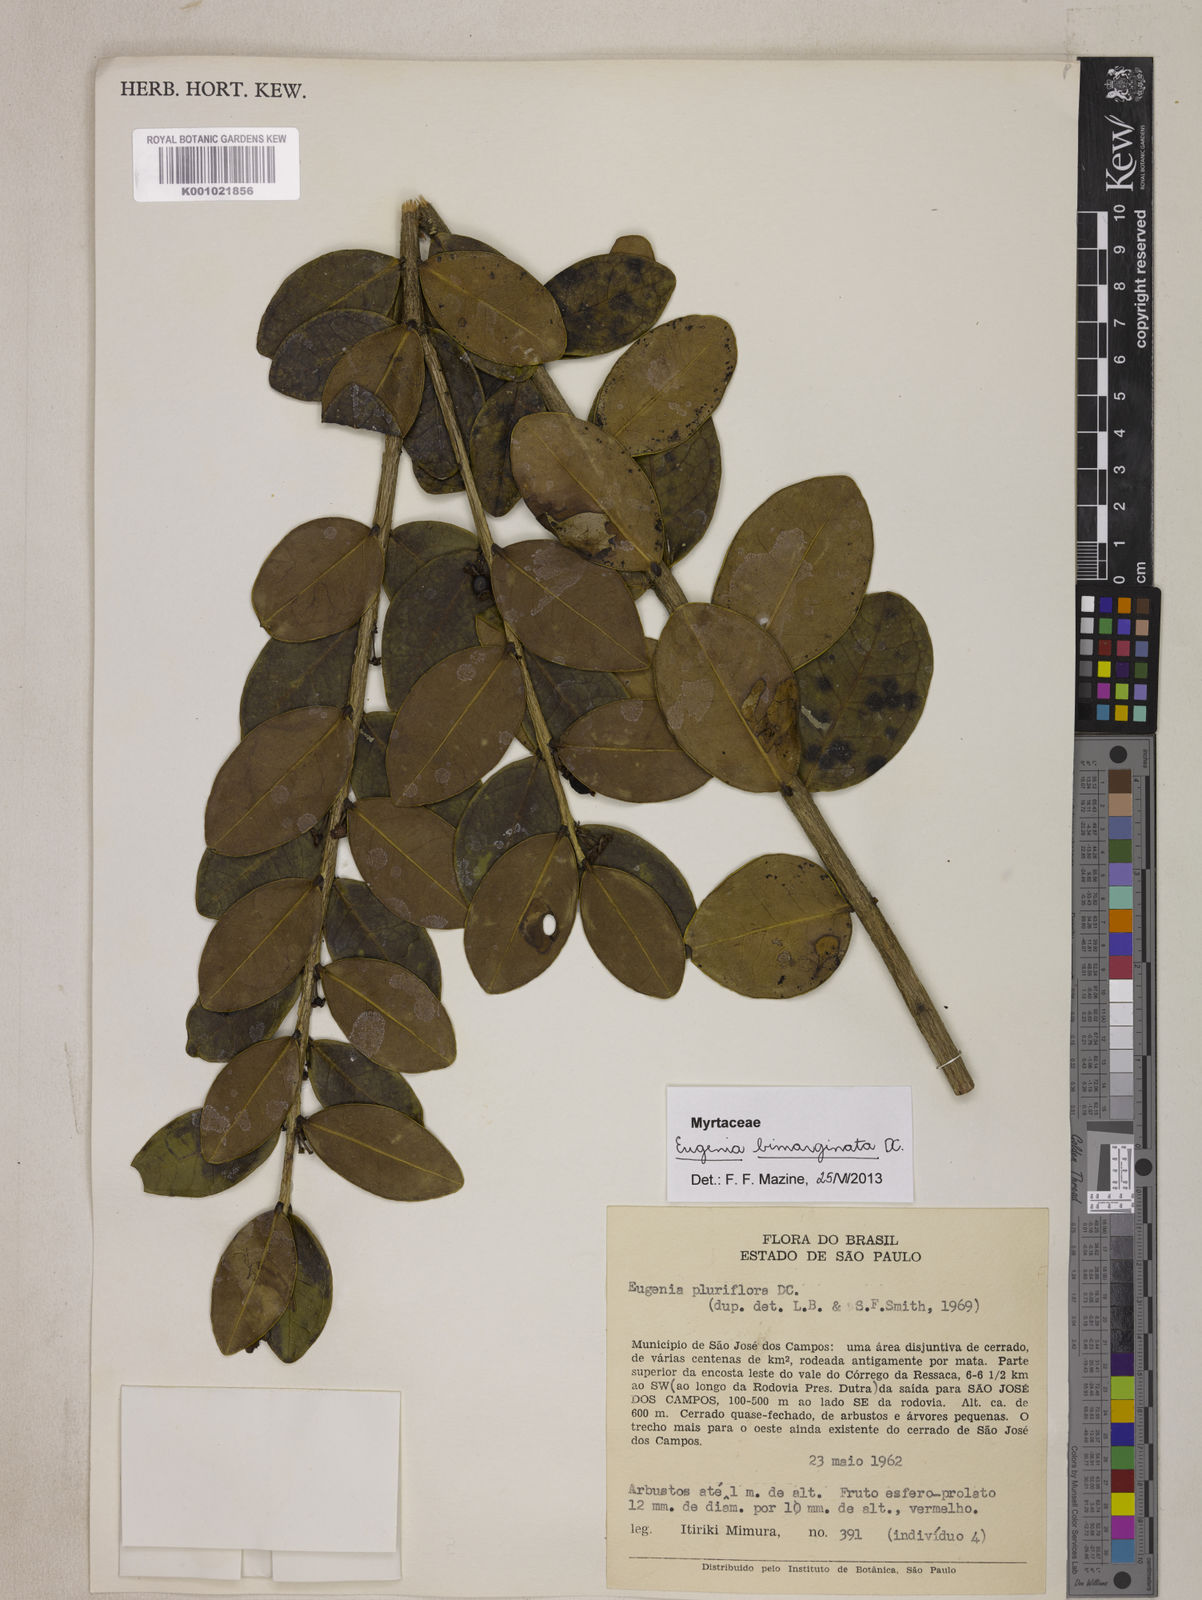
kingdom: Plantae
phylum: Tracheophyta
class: Magnoliopsida
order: Myrtales
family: Myrtaceae
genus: Eugenia
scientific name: Eugenia bimarginata
